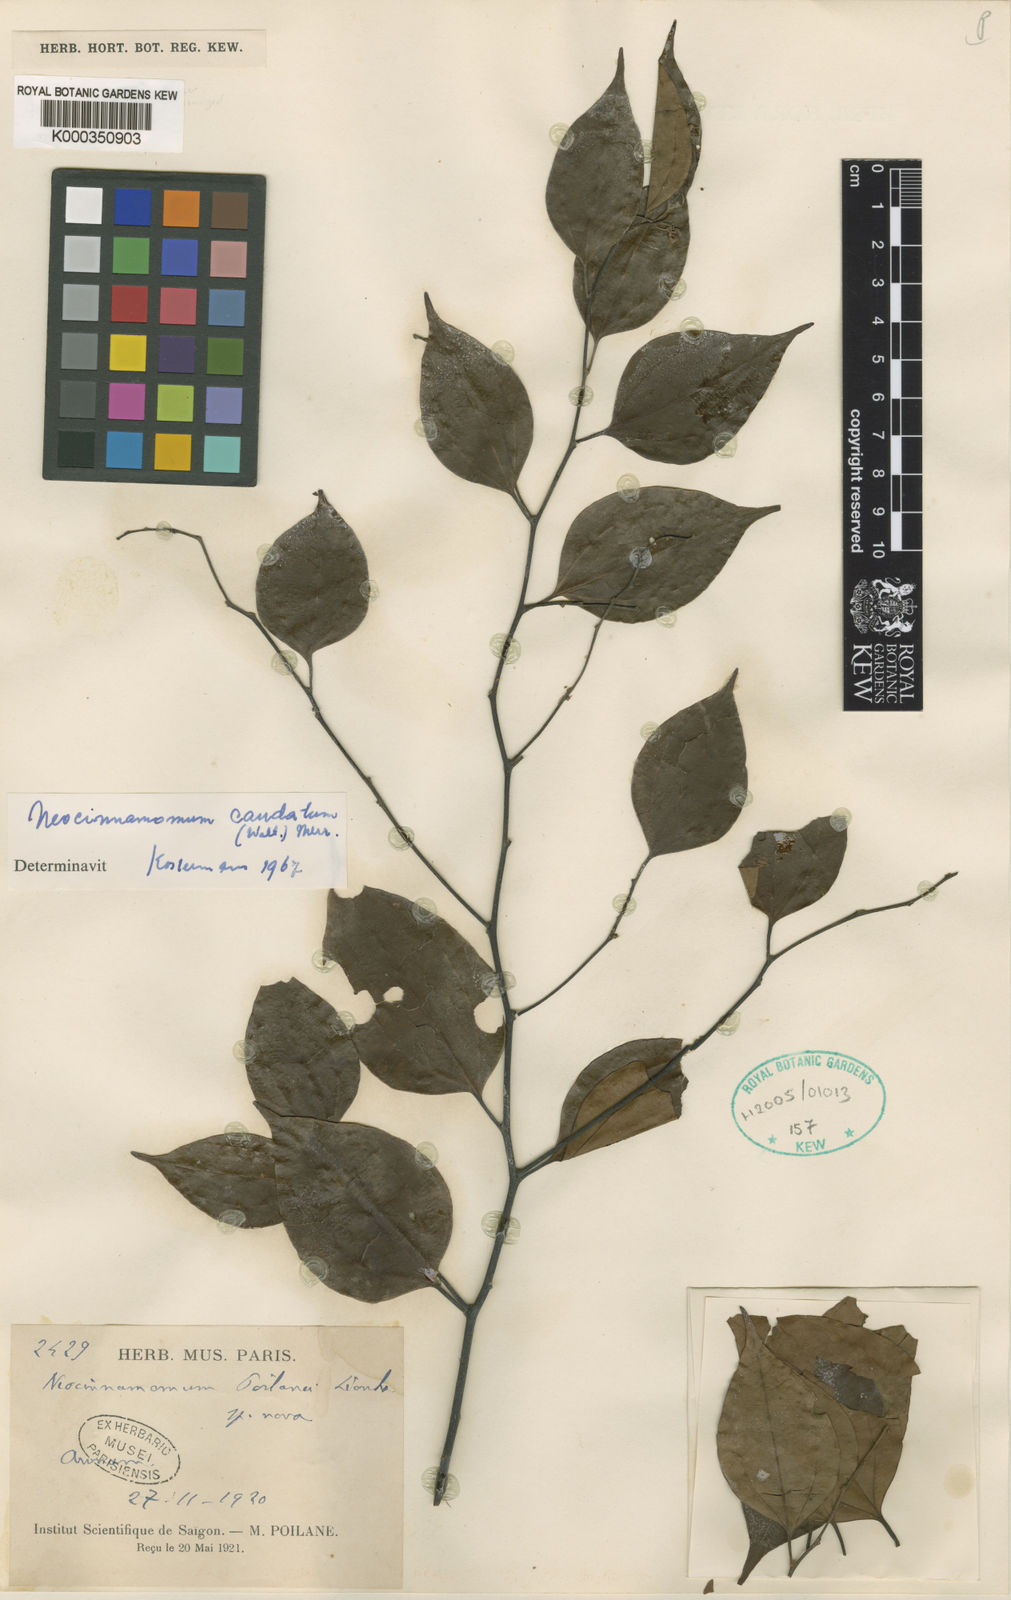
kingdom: Plantae
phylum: Tracheophyta
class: Magnoliopsida
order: Laurales
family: Lauraceae
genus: Neocinnamomum
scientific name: Neocinnamomum caudatum
